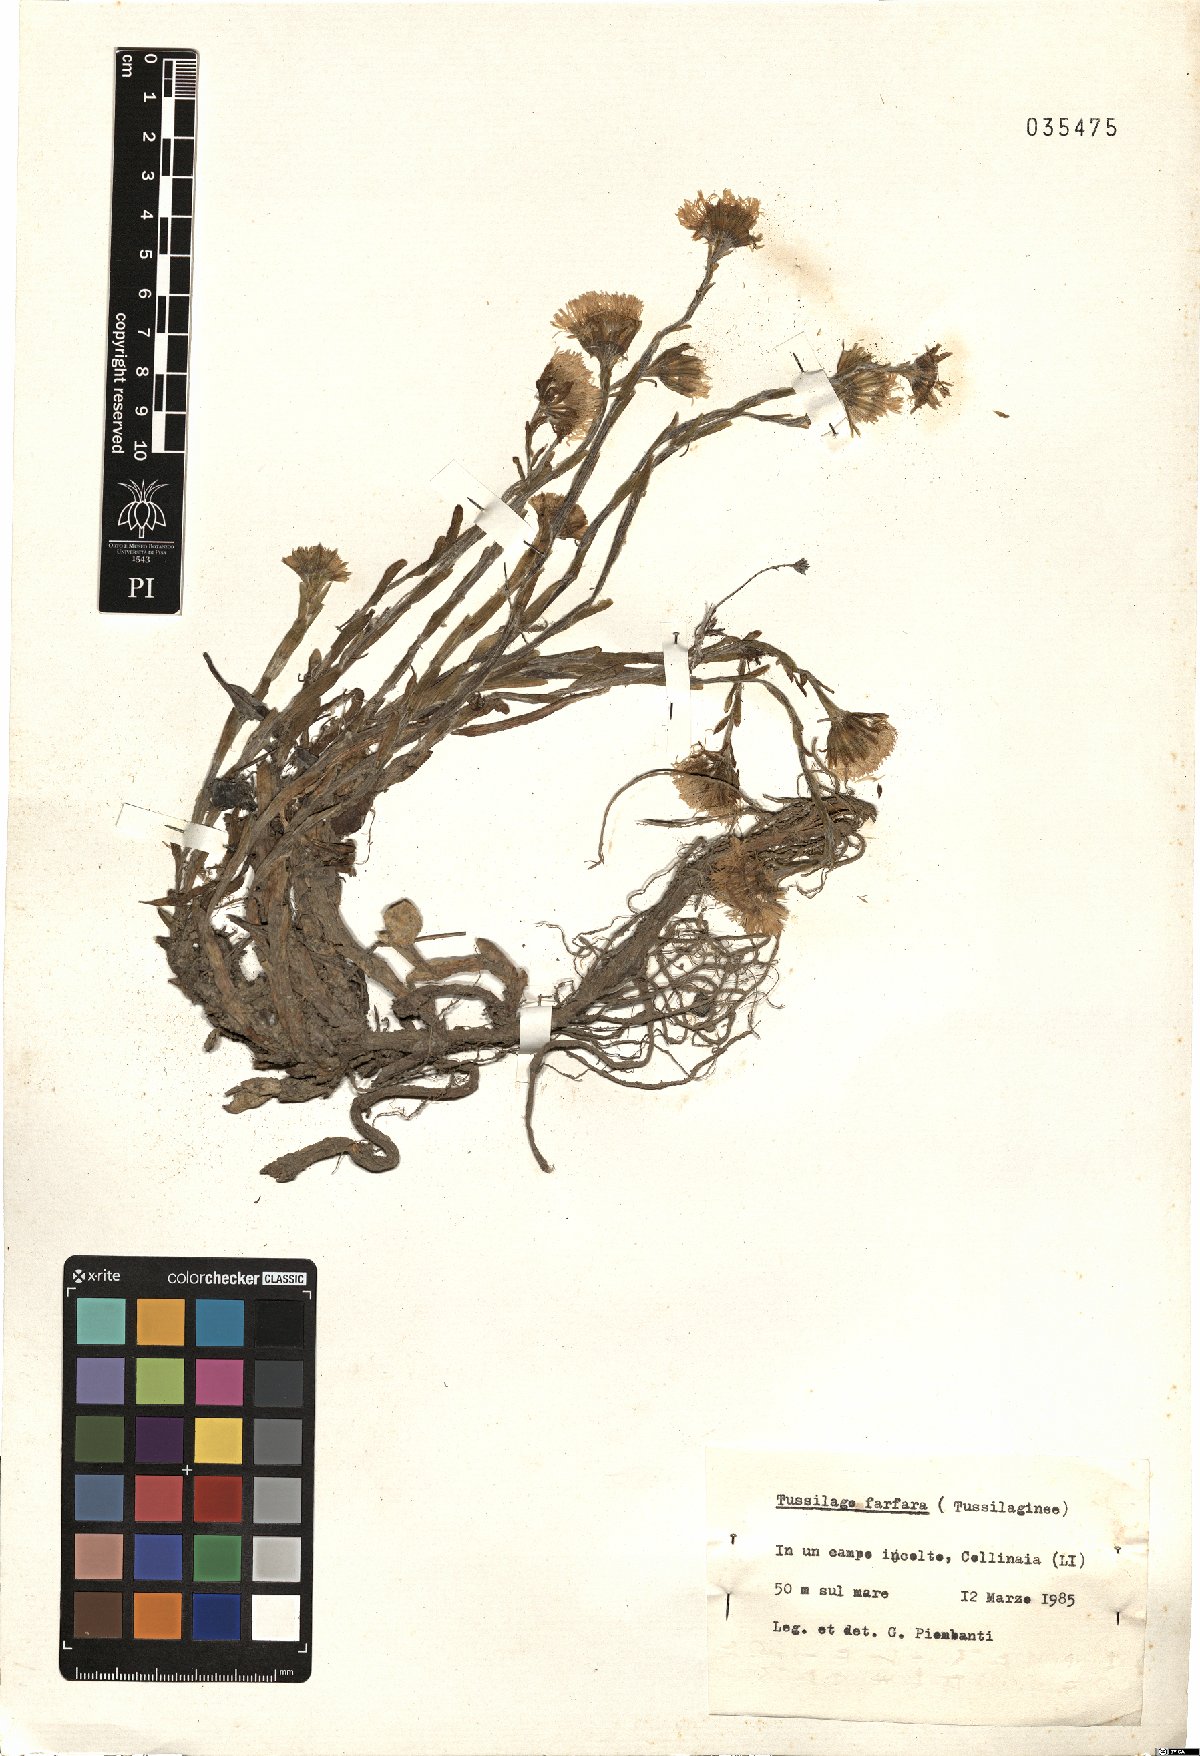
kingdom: Plantae
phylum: Tracheophyta
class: Magnoliopsida
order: Asterales
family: Asteraceae
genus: Tussilago
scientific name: Tussilago farfara
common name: Coltsfoot
